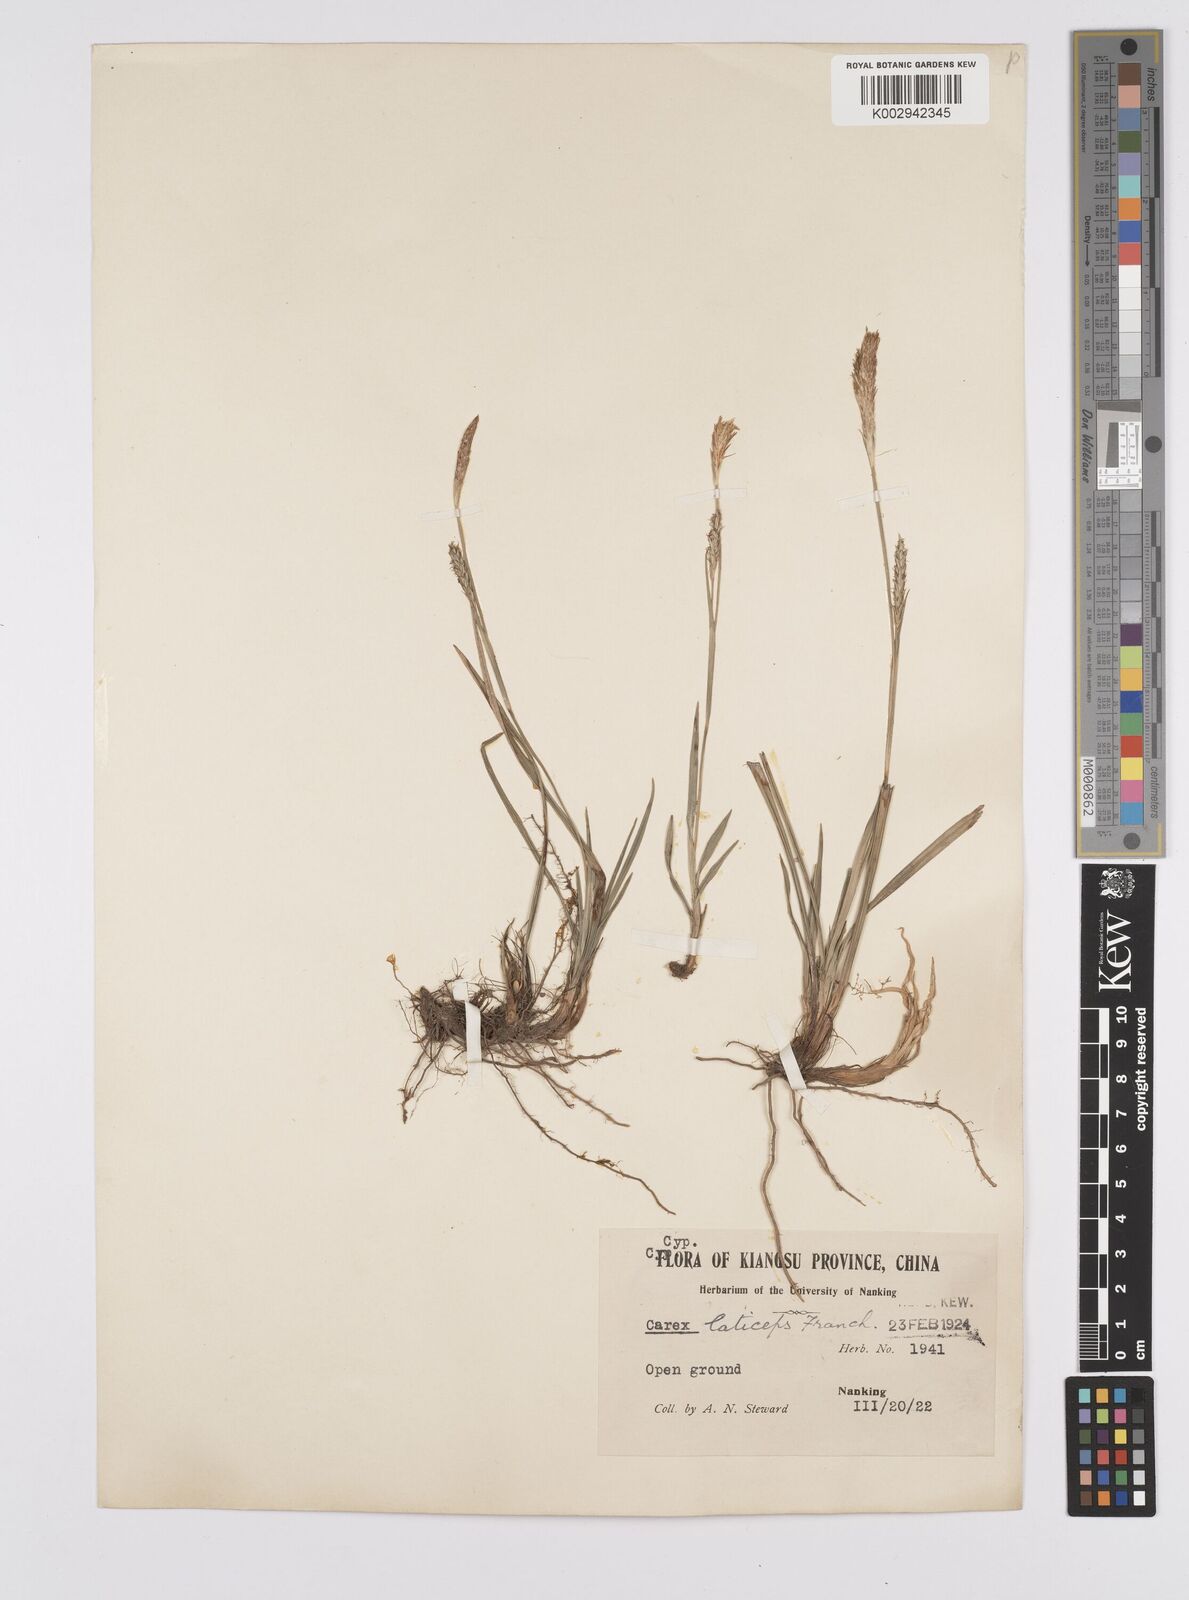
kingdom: Plantae
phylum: Tracheophyta
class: Liliopsida
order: Poales
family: Cyperaceae
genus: Carex
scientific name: Carex sampsonii
